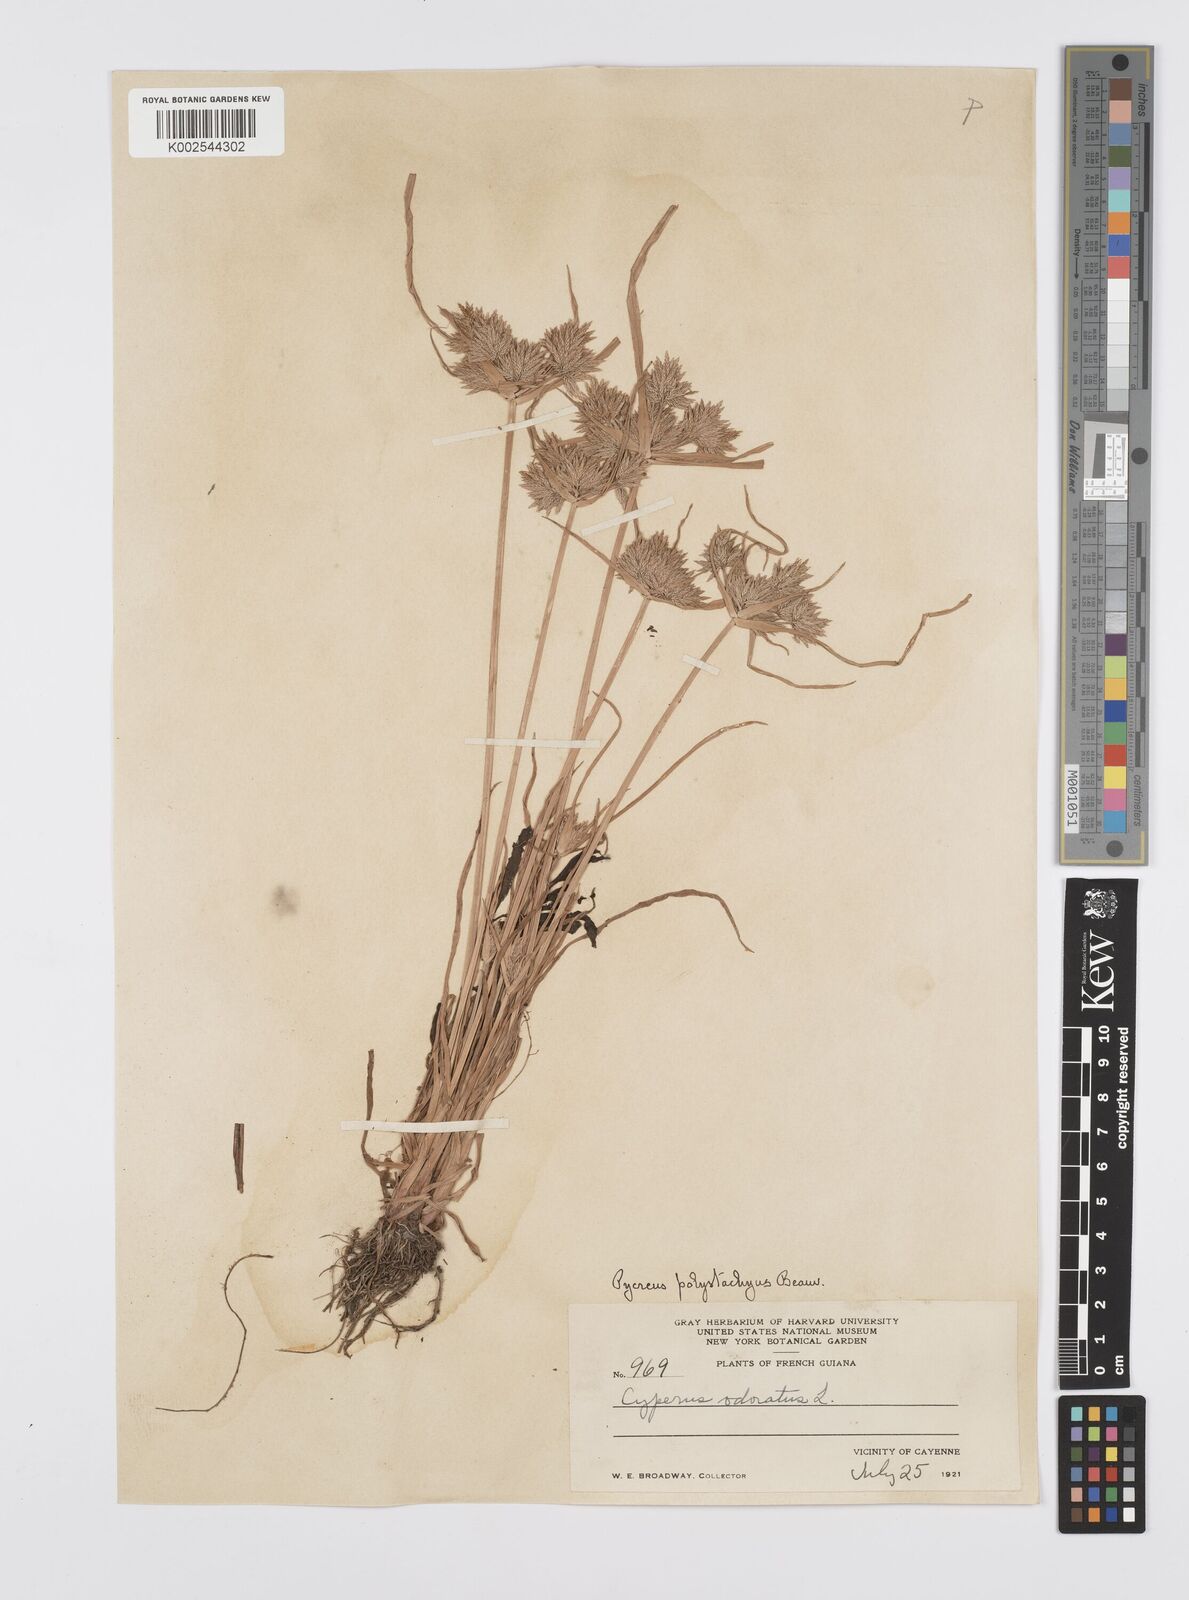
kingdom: Plantae
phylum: Tracheophyta
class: Liliopsida
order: Poales
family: Cyperaceae
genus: Cyperus
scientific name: Cyperus polystachyos
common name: Bunchy flat sedge
